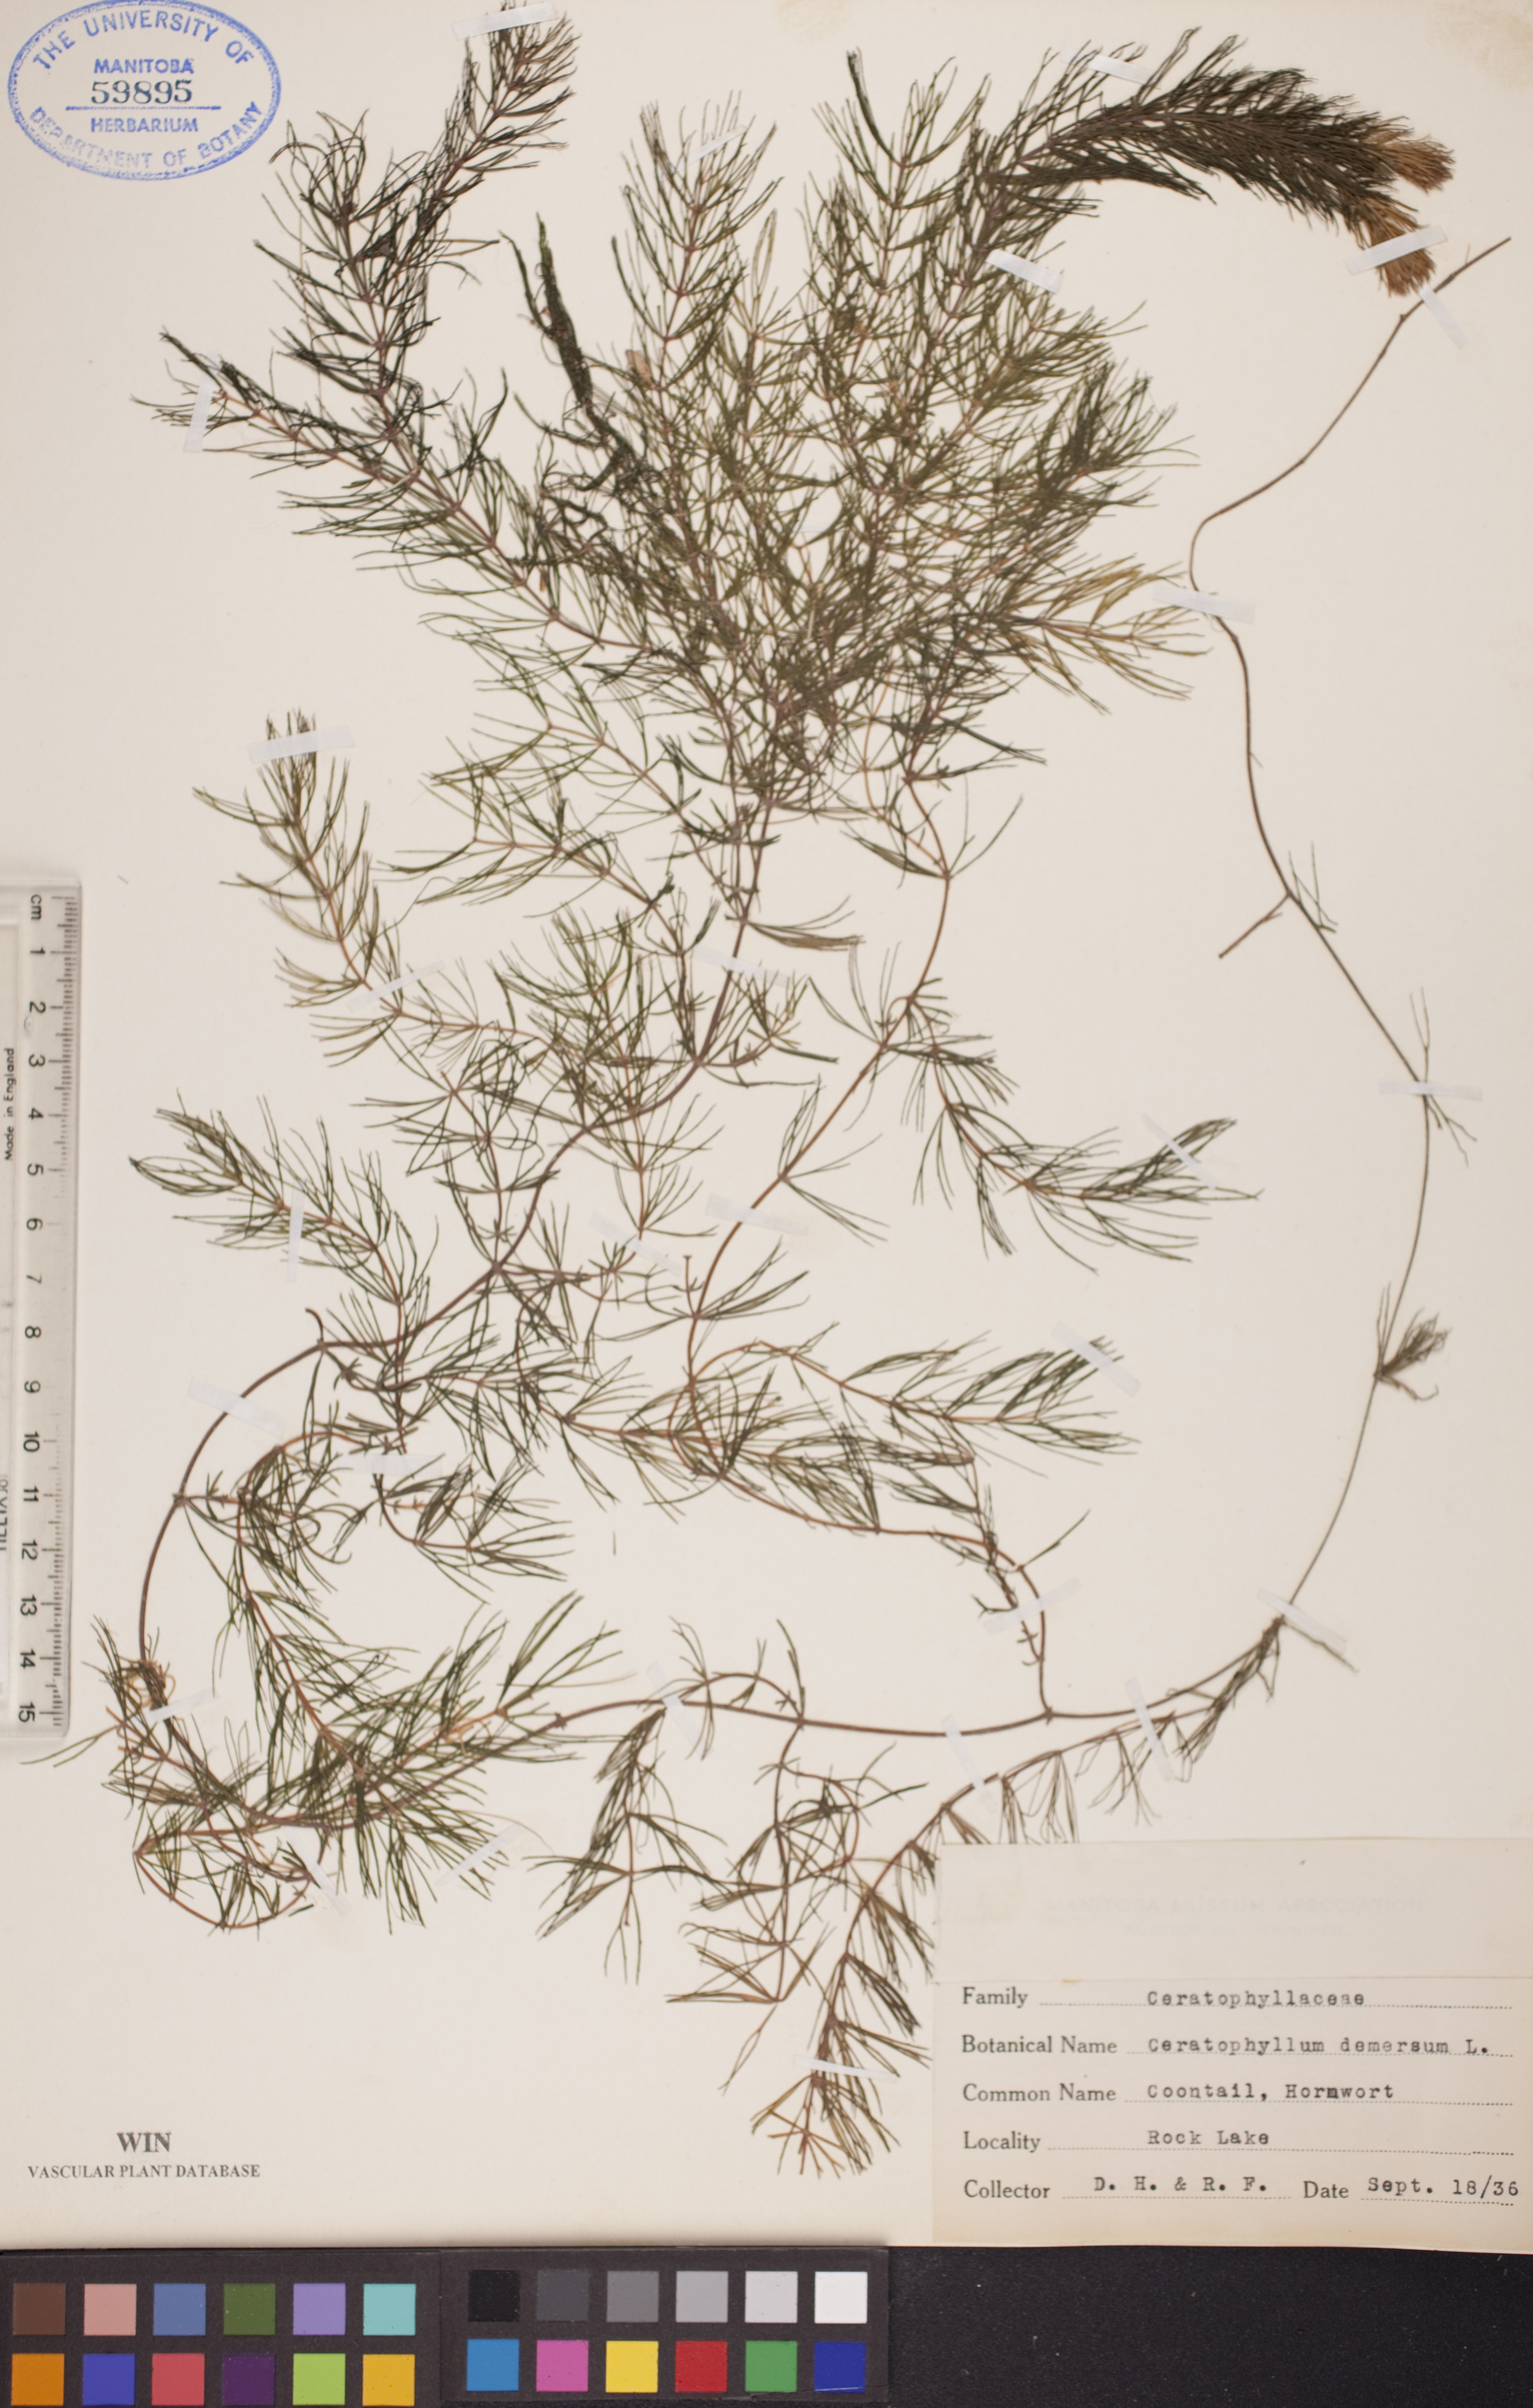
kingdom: Plantae
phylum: Tracheophyta
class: Magnoliopsida
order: Ceratophyllales
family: Ceratophyllaceae
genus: Ceratophyllum
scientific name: Ceratophyllum demersum
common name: Rigid hornwort
